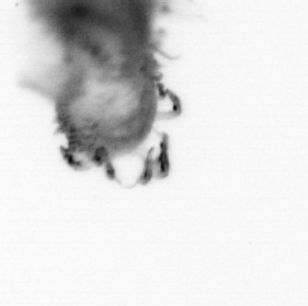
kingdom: Animalia
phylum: Annelida
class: Polychaeta
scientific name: Polychaeta
